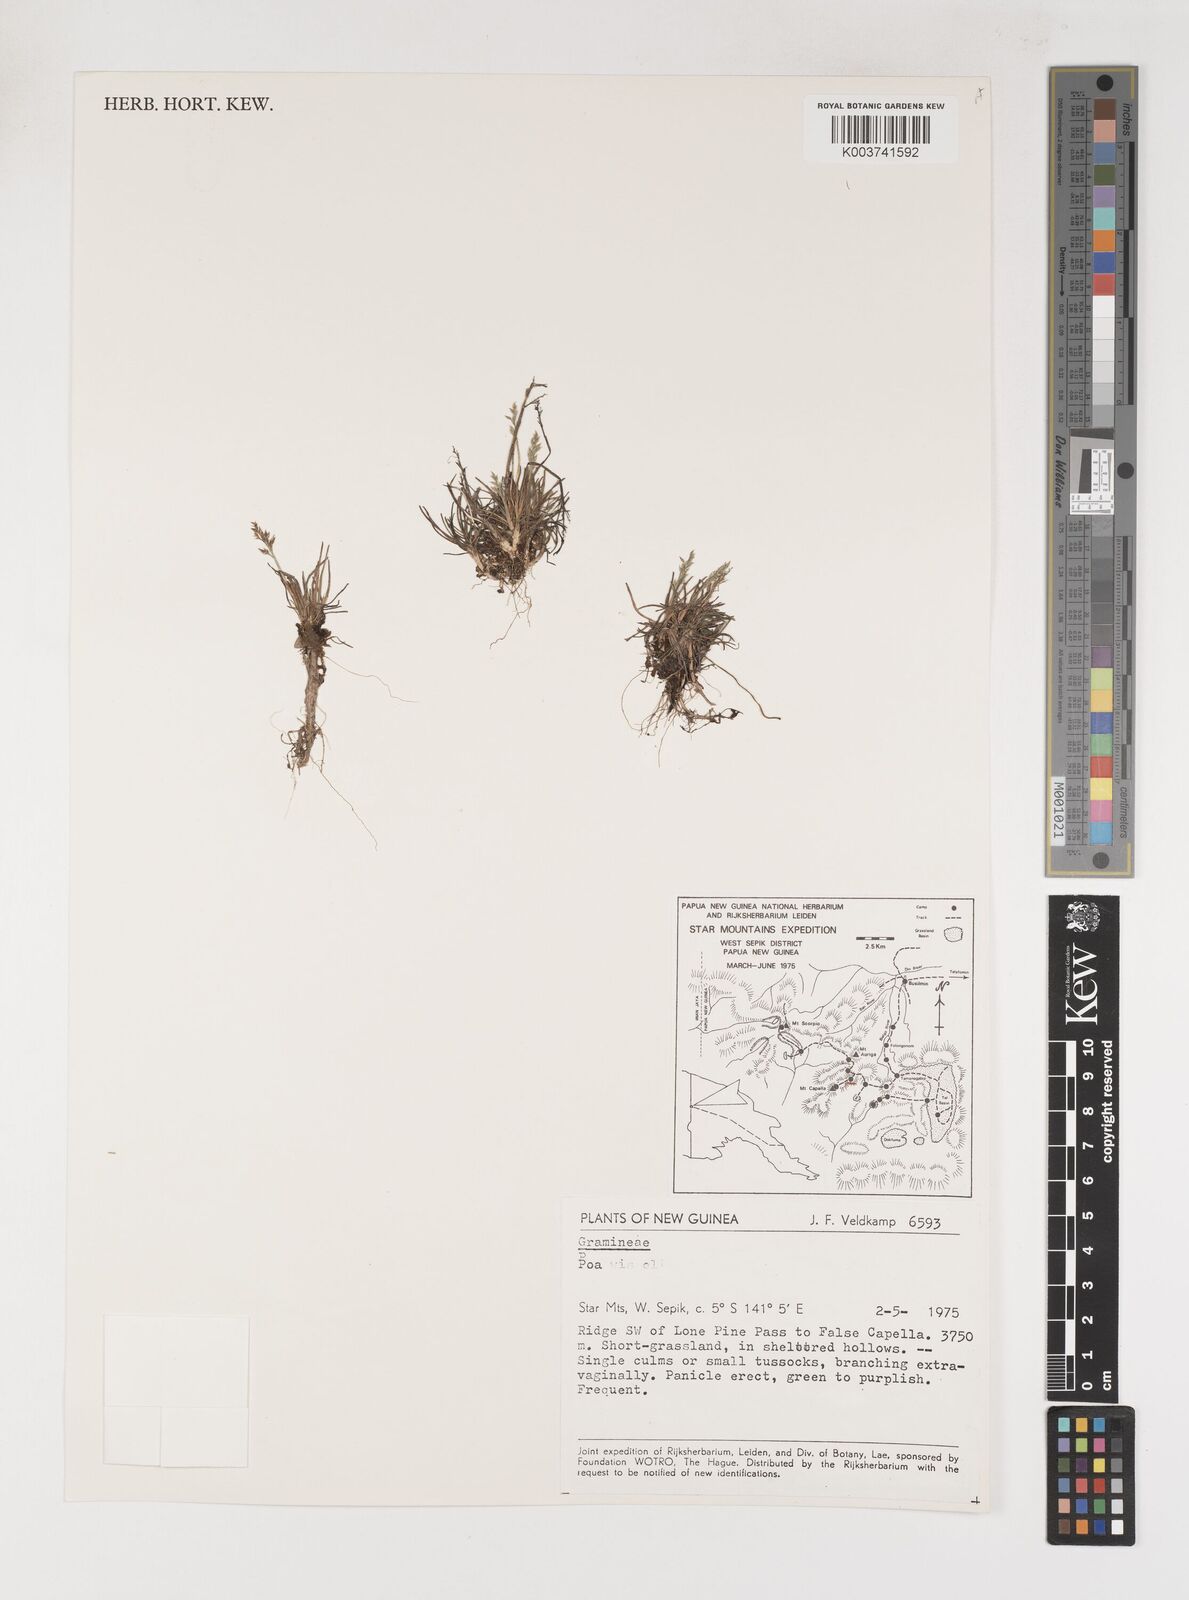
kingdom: Plantae
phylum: Tracheophyta
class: Liliopsida
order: Poales
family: Poaceae
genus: Poa
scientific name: Poa wisselii
